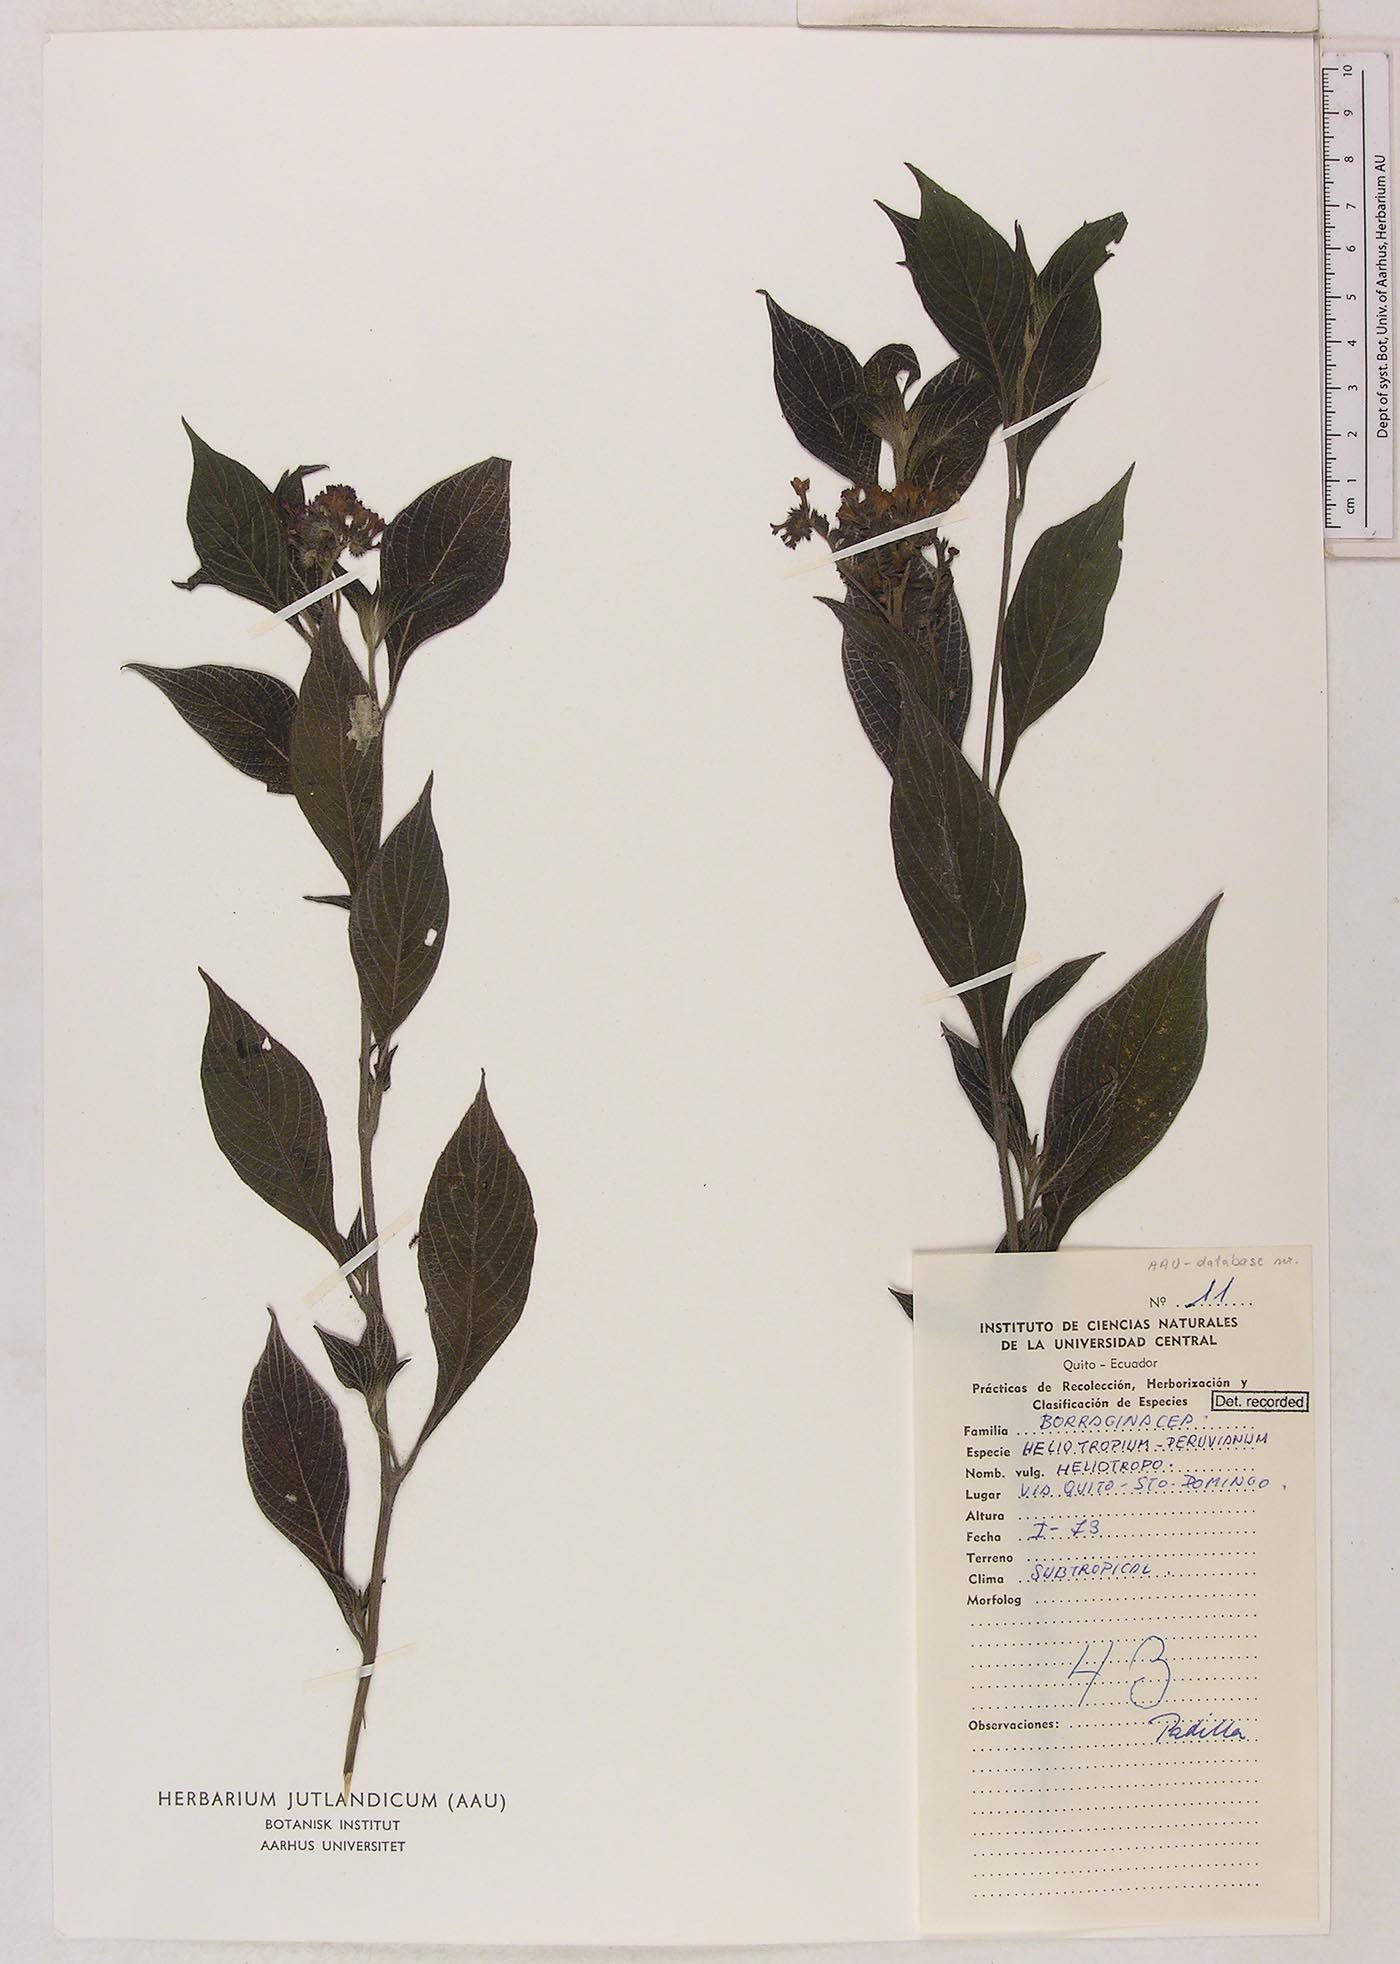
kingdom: Plantae
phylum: Tracheophyta
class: Magnoliopsida
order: Boraginales
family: Heliotropiaceae
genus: Heliotropium
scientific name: Heliotropium arborescens
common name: Cherry-pie
